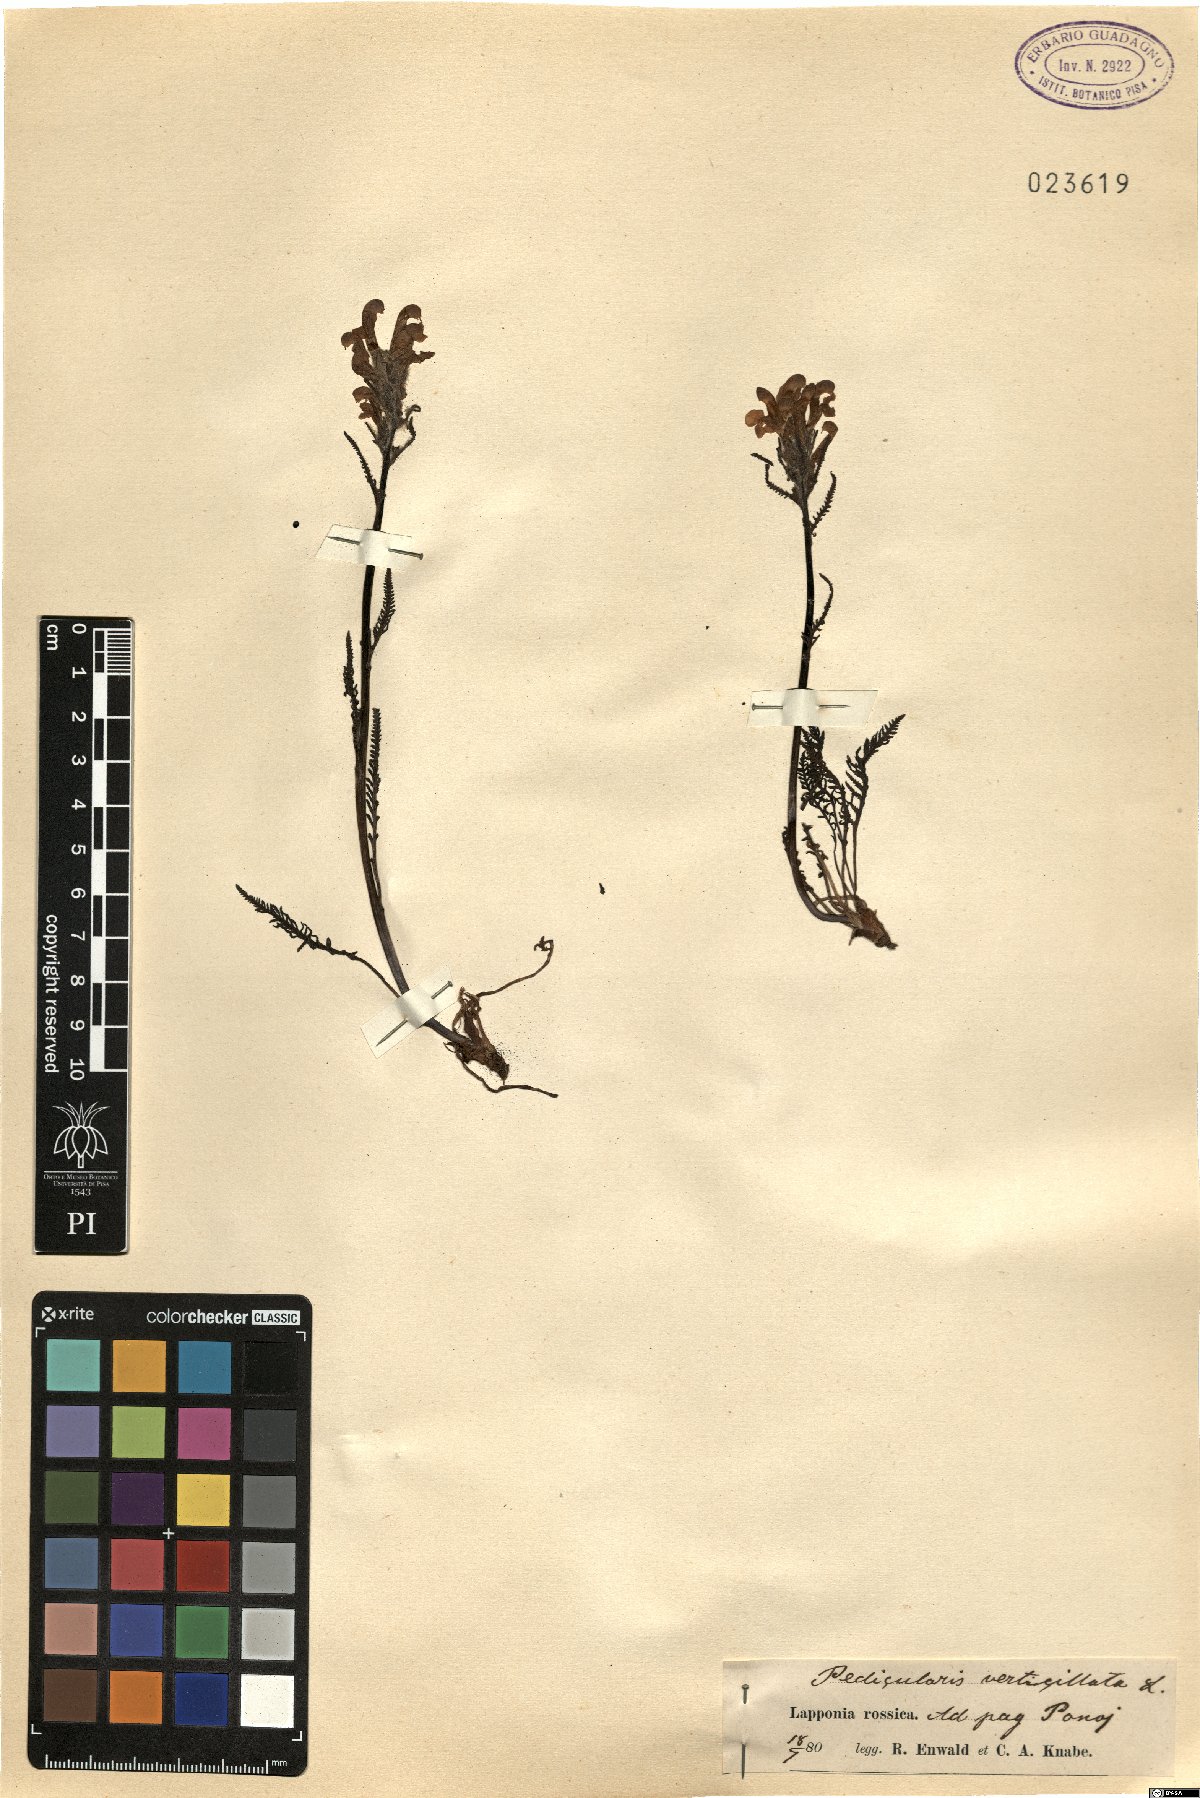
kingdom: Plantae
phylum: Tracheophyta
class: Magnoliopsida
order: Lamiales
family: Orobanchaceae
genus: Pedicularis
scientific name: Pedicularis verticillata
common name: Whorled lousewort
